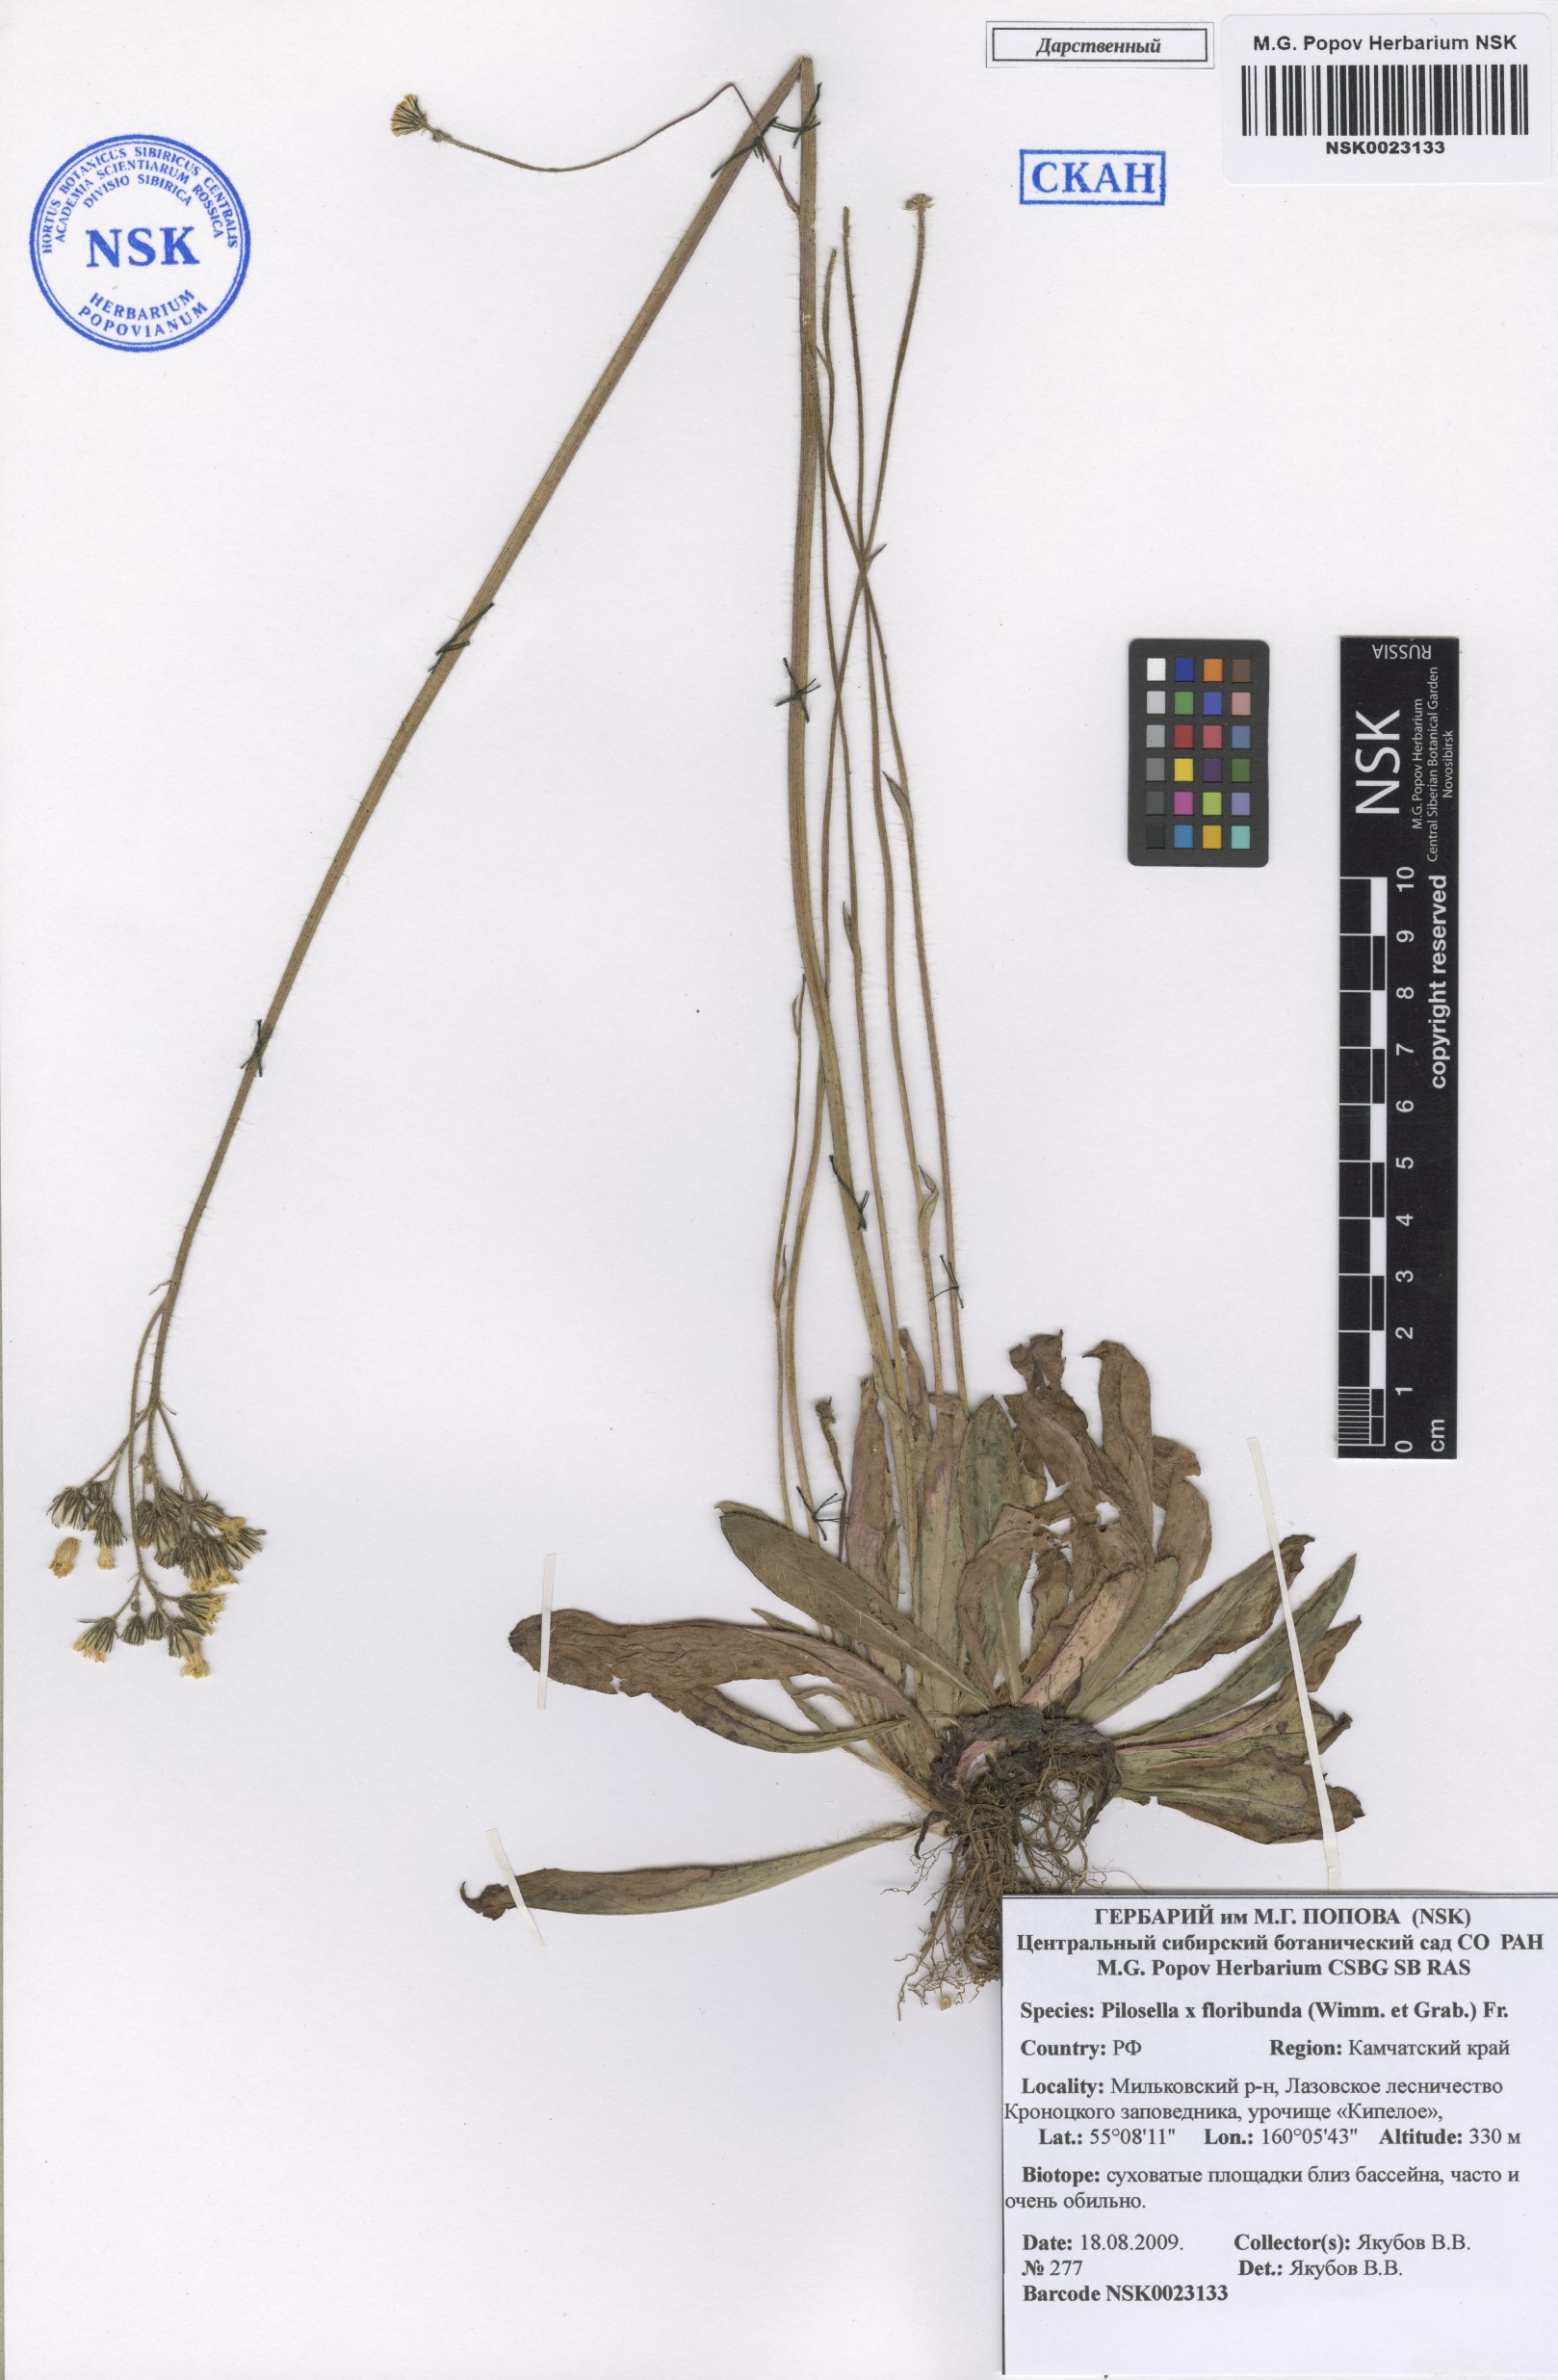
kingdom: Plantae
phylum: Tracheophyta
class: Magnoliopsida
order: Asterales
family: Asteraceae
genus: Pilosella
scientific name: Pilosella floribunda
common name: Glaucous hawkweed
